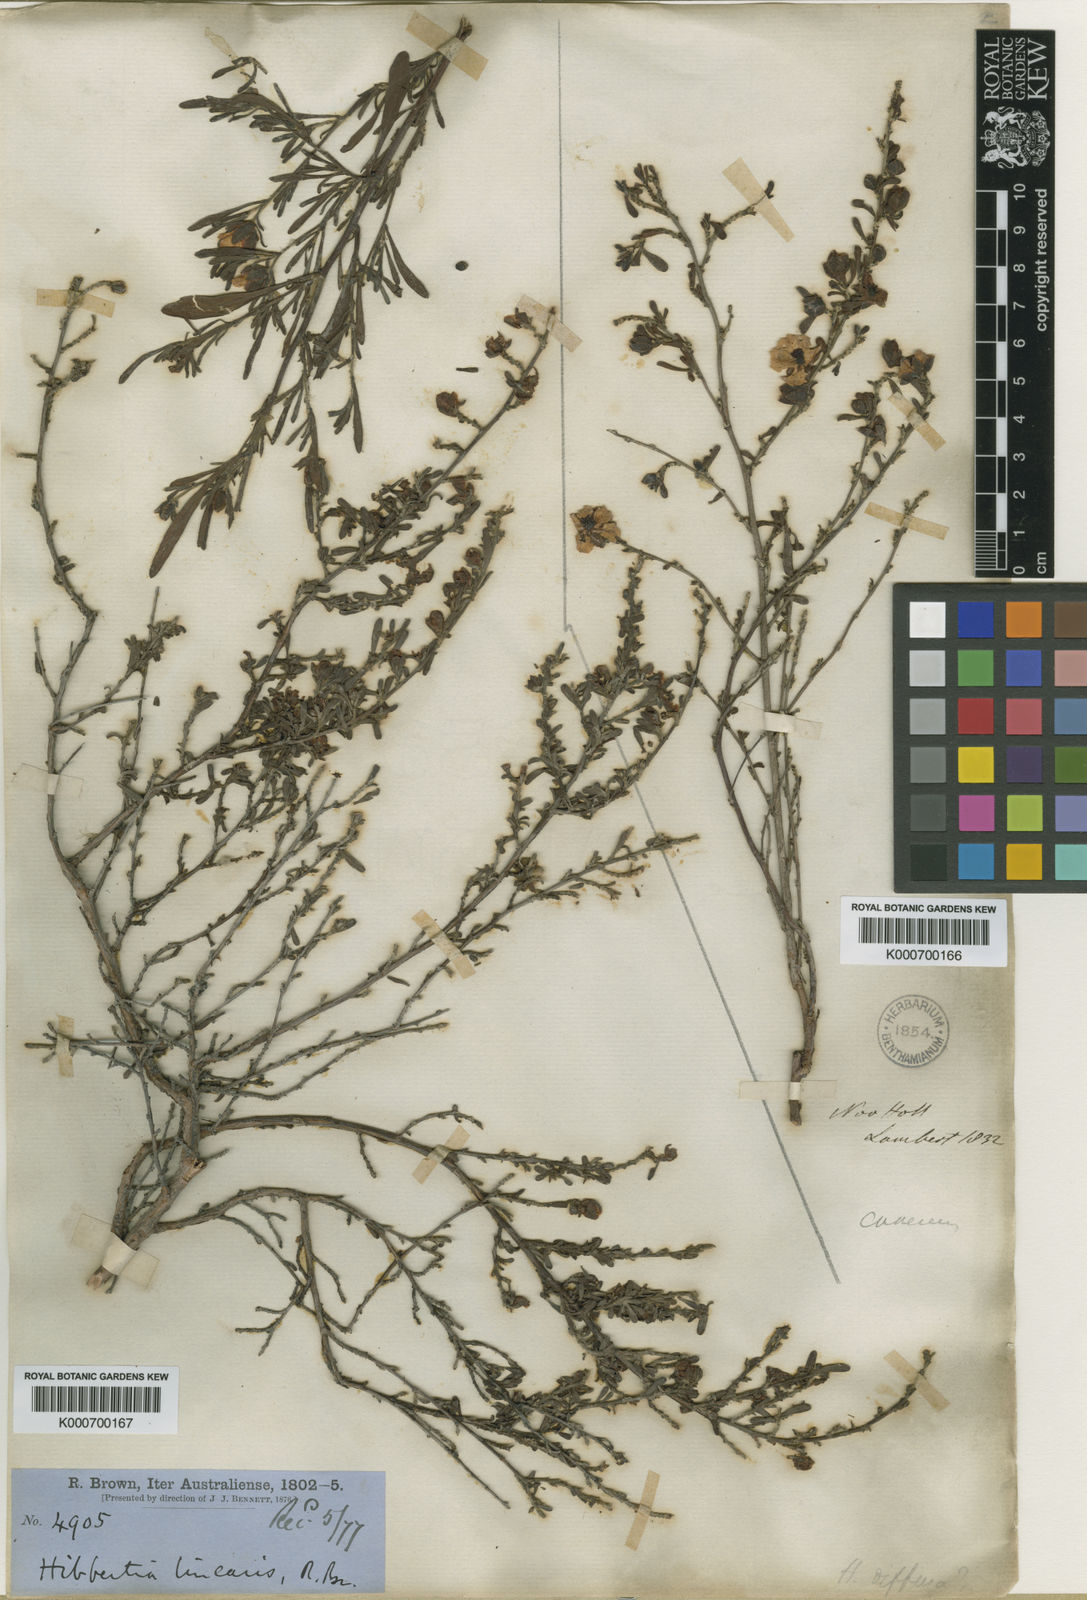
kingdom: Plantae
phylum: Tracheophyta
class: Magnoliopsida
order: Dilleniales
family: Dilleniaceae
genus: Hibbertia
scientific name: Hibbertia linearis
